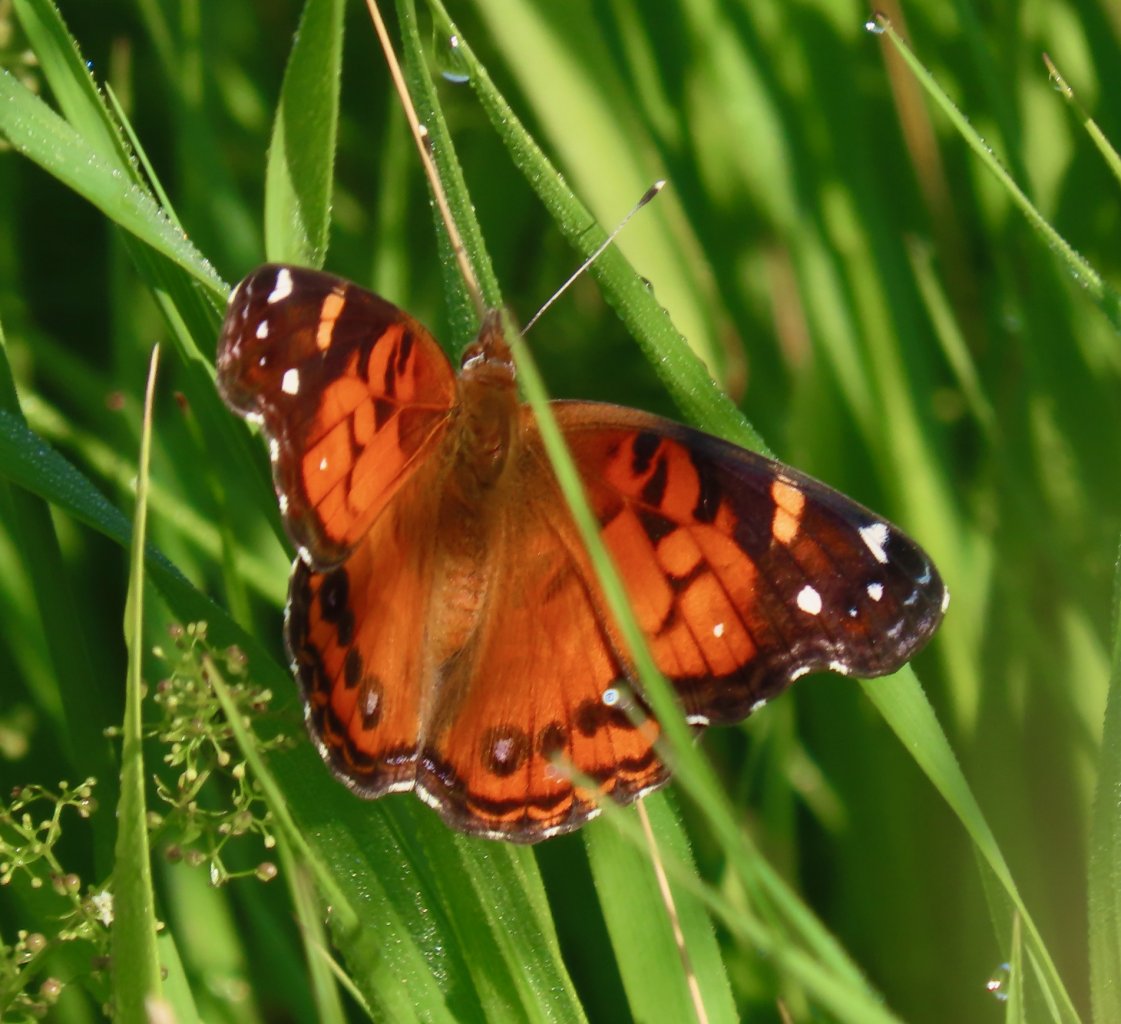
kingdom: Animalia
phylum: Arthropoda
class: Insecta
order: Lepidoptera
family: Nymphalidae
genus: Vanessa
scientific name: Vanessa virginiensis
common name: American Lady
